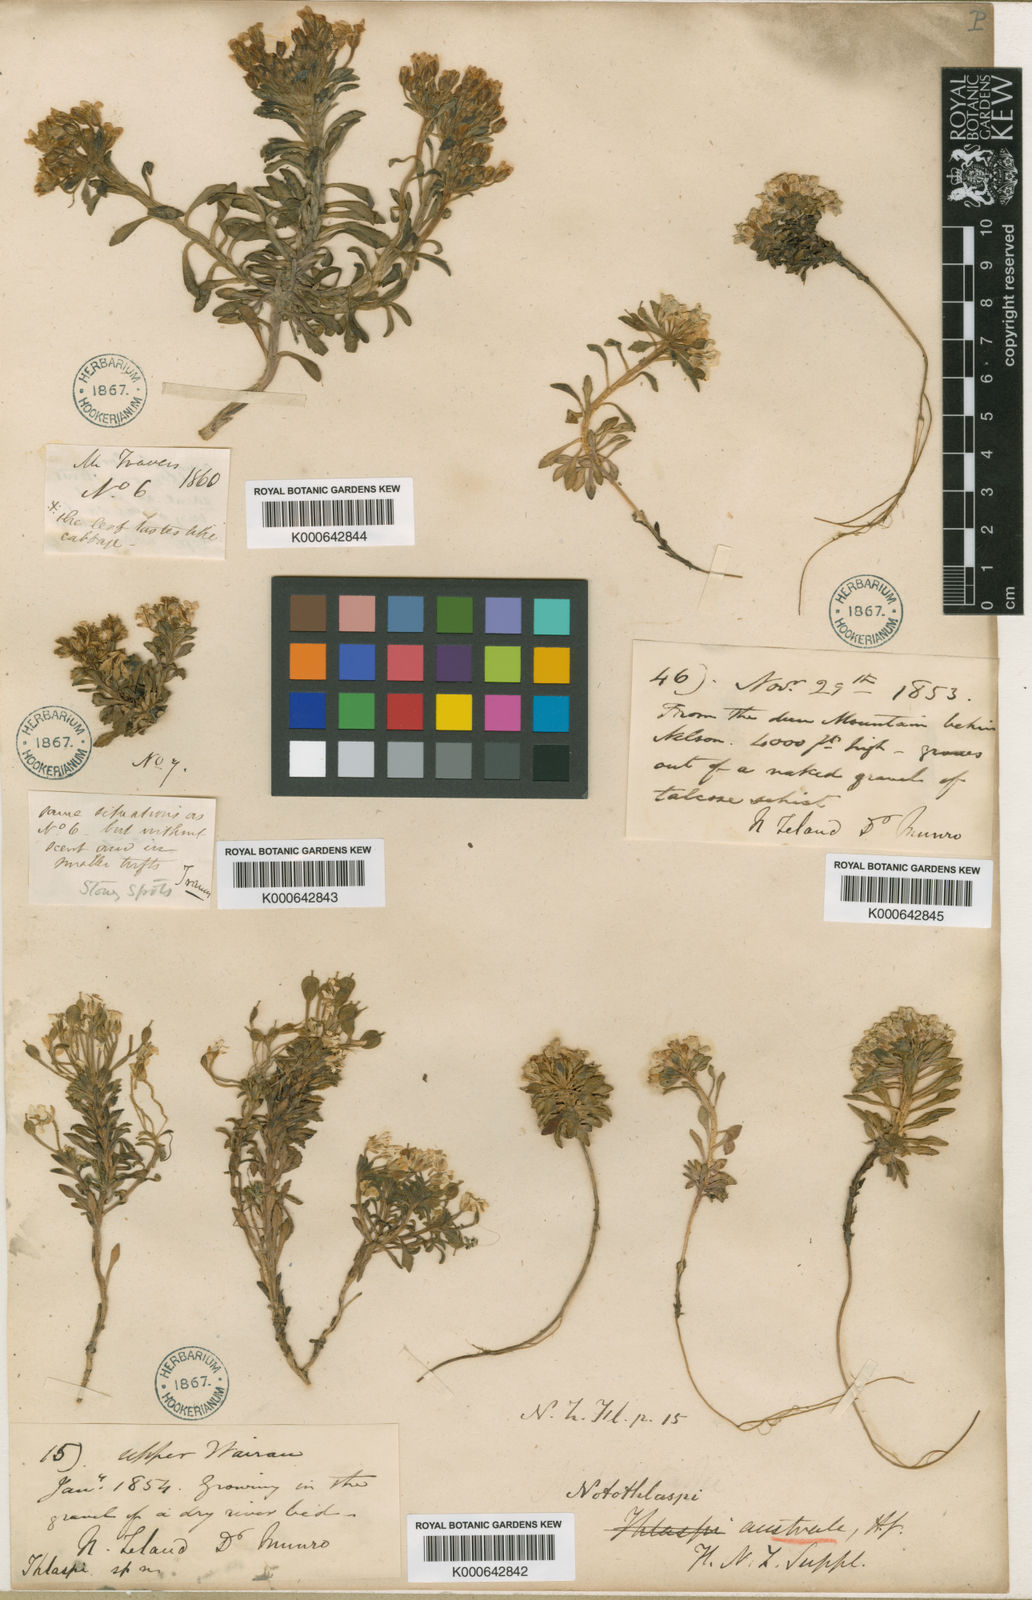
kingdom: Plantae
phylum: Tracheophyta
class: Magnoliopsida
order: Brassicales
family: Brassicaceae
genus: Notothlaspi
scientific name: Notothlaspi australe
